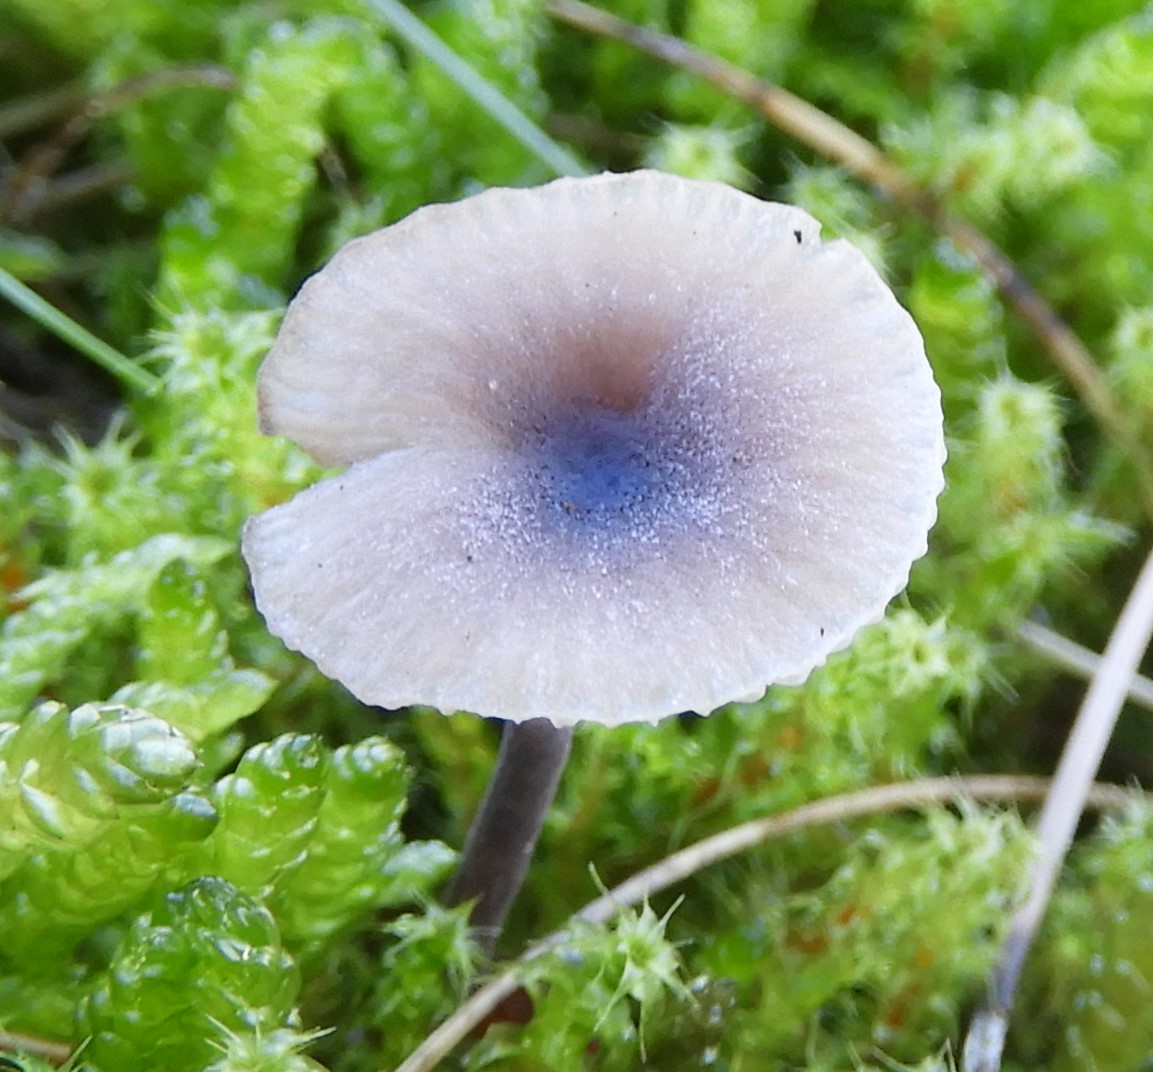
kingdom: Fungi
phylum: Basidiomycota
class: Agaricomycetes
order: Hymenochaetales
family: Rickenellaceae
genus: Rickenella
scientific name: Rickenella swartzii
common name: finstokket mosnavlehat
